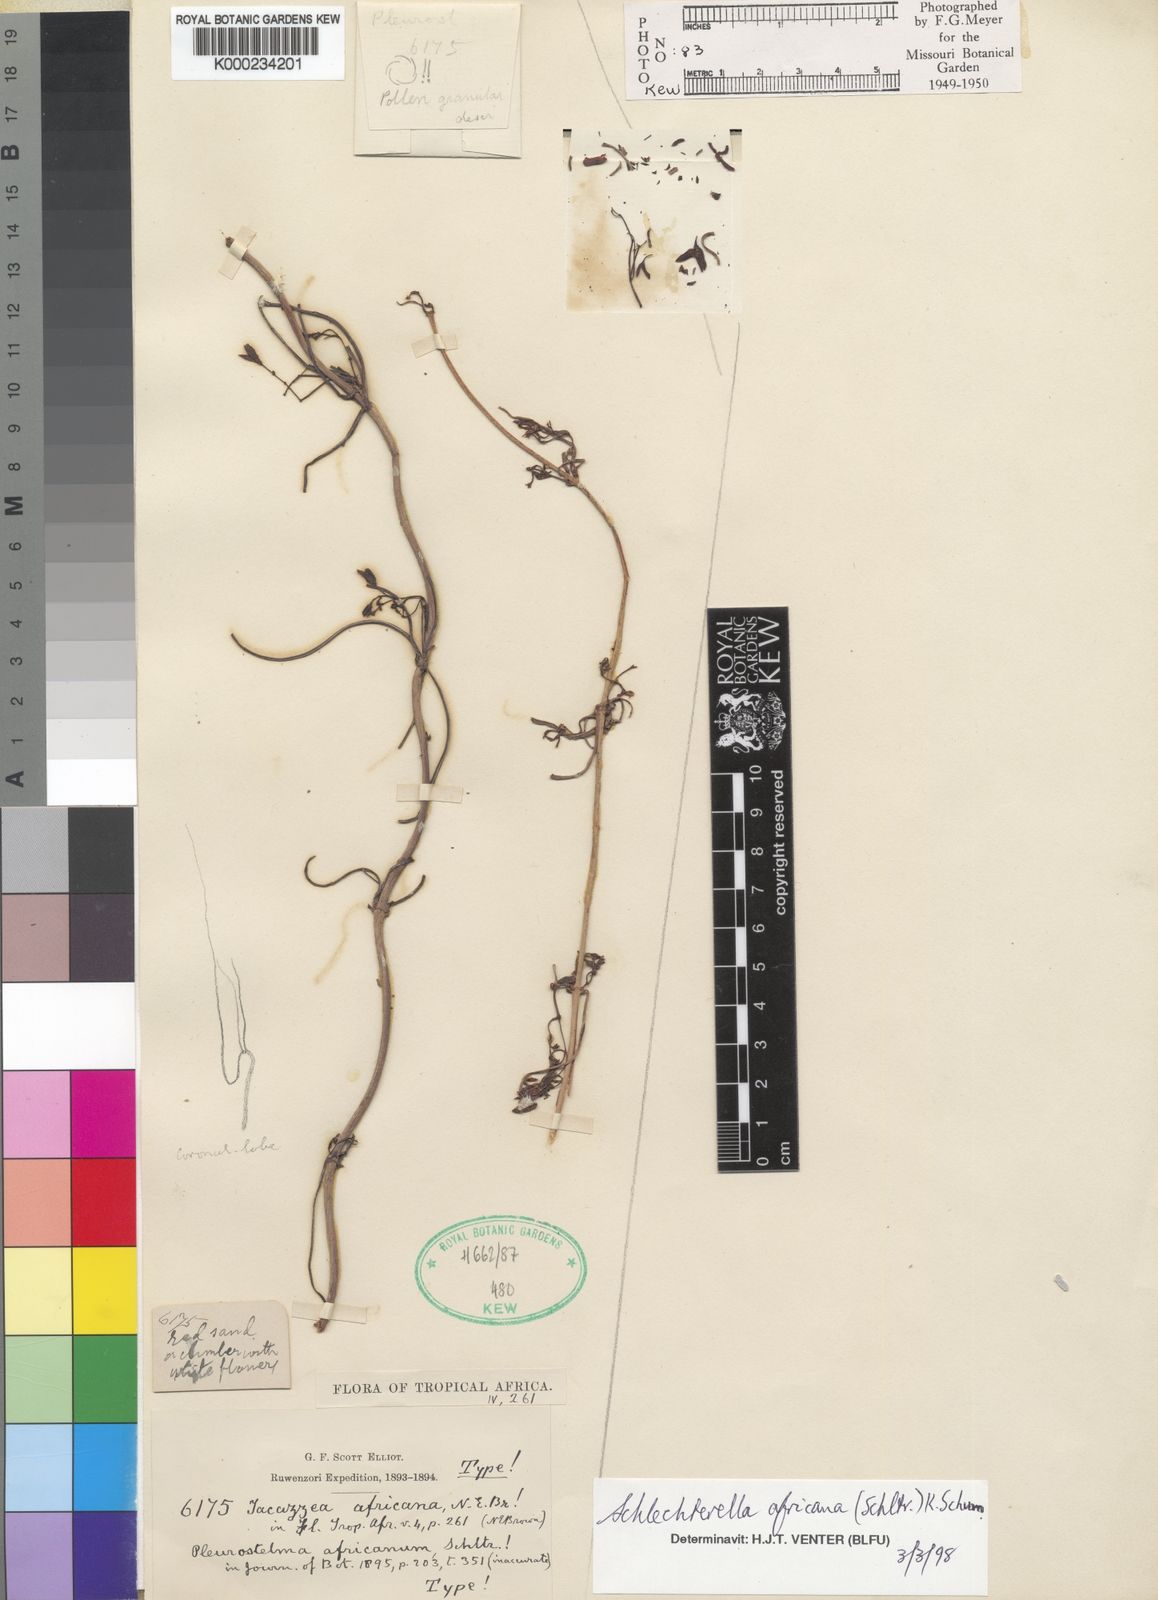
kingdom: Plantae
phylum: Tracheophyta
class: Magnoliopsida
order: Gentianales
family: Apocynaceae
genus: Schlechterella
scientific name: Schlechterella africana
